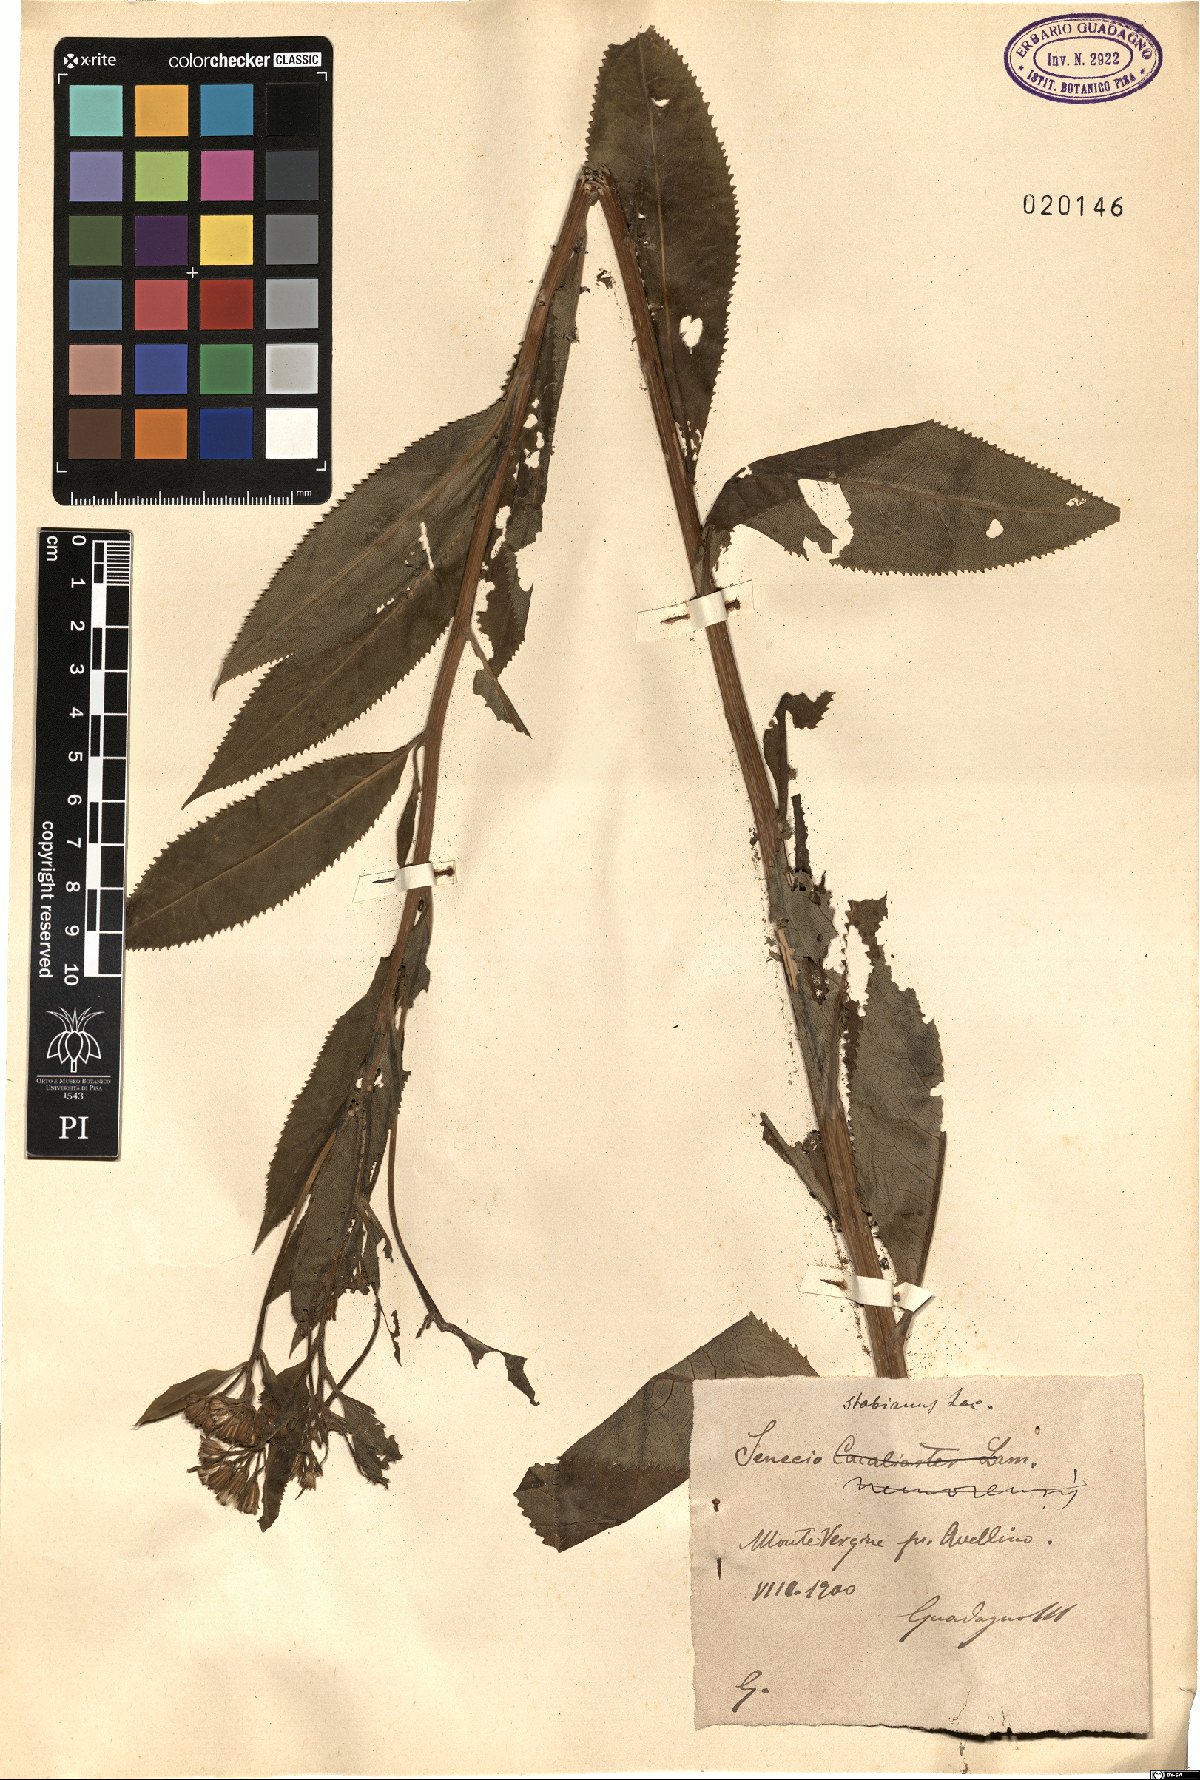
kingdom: Plantae
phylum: Tracheophyta
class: Magnoliopsida
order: Asterales
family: Asteraceae
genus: Senecio
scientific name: Senecio ovatus
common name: Wood ragwort
